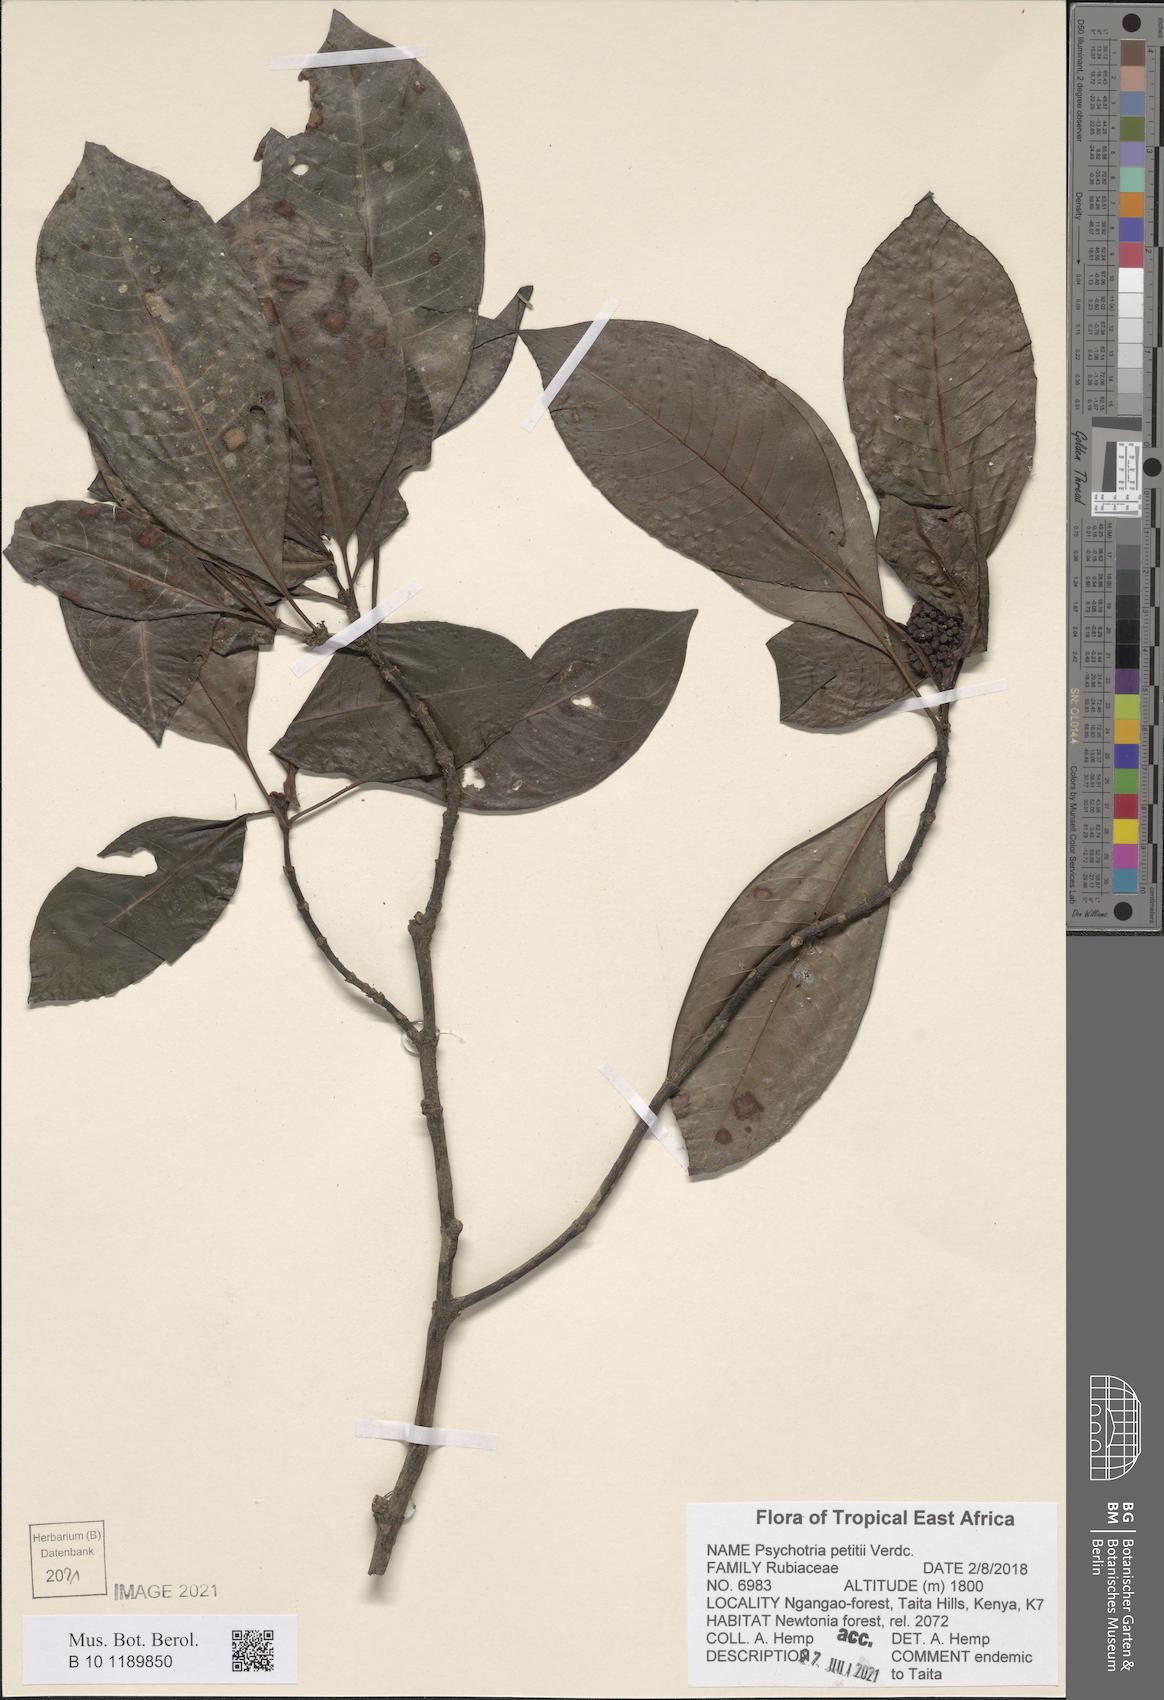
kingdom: Plantae
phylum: Tracheophyta
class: Magnoliopsida
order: Gentianales
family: Rubiaceae
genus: Psychotria
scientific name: Psychotria petitii
